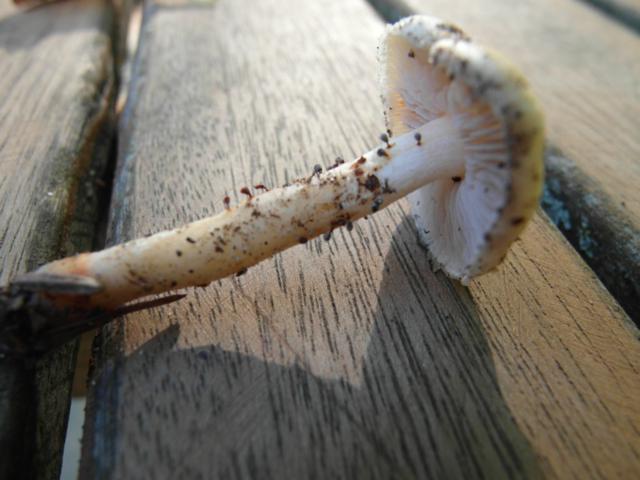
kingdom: Fungi
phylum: Basidiomycota
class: Agaricomycetes
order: Agaricales
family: Inocybaceae
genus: Inocybe
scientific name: Inocybe
